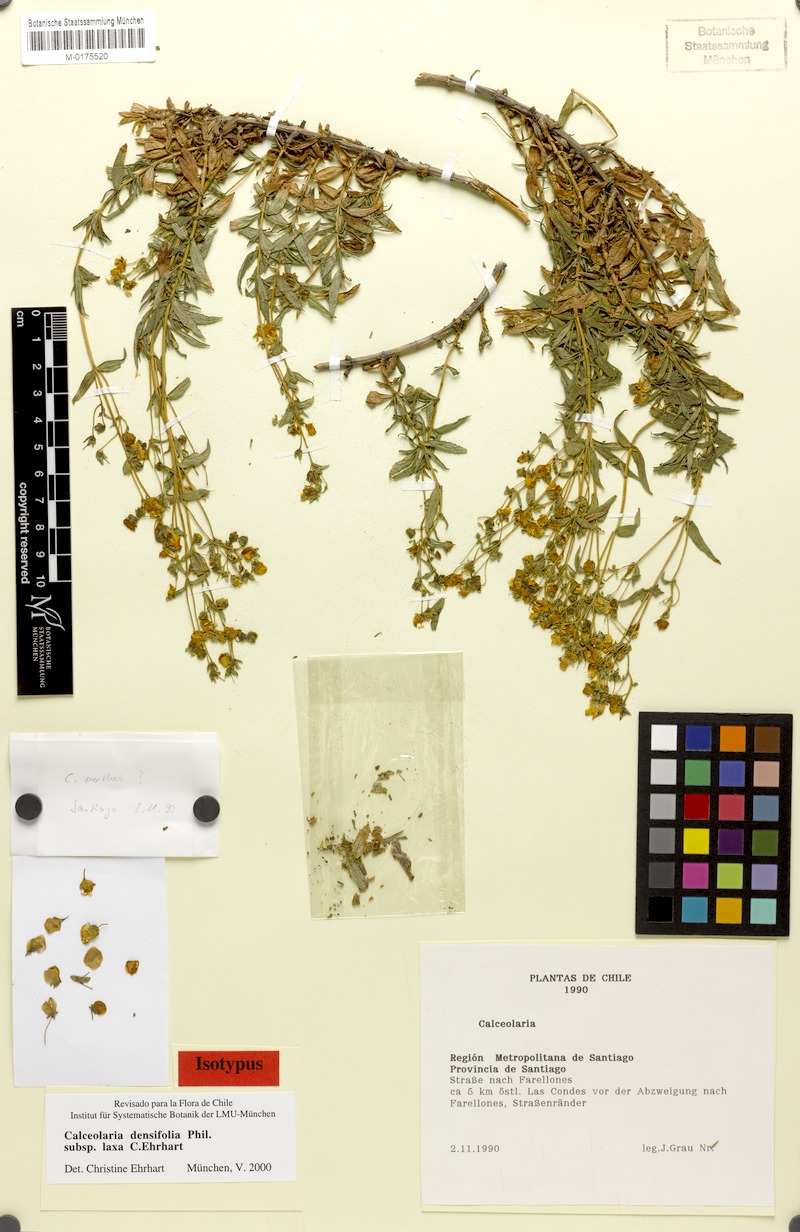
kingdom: Plantae
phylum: Tracheophyta
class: Magnoliopsida
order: Lamiales
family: Calceolariaceae
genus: Calceolaria
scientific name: Calceolaria densifolia
